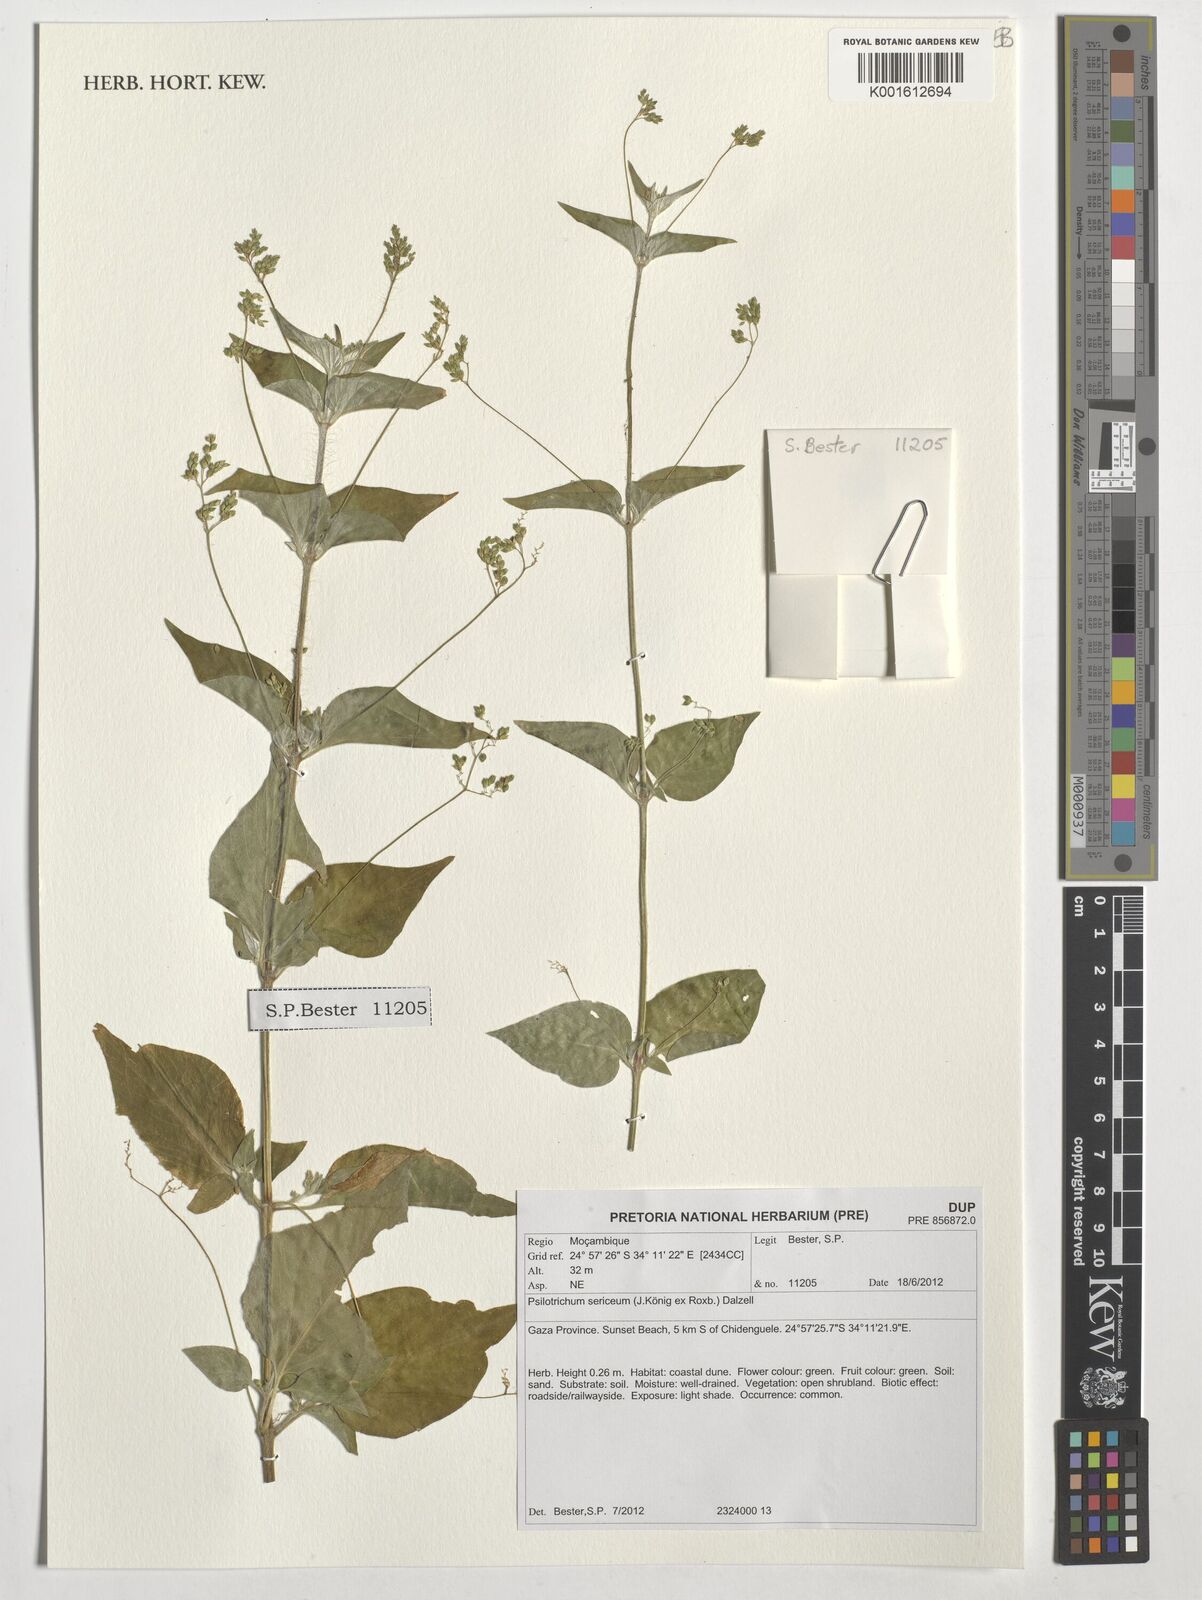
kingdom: Plantae
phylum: Tracheophyta
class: Magnoliopsida
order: Caryophyllales
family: Amaranthaceae
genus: Psilotrichum
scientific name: Psilotrichum sericeum
